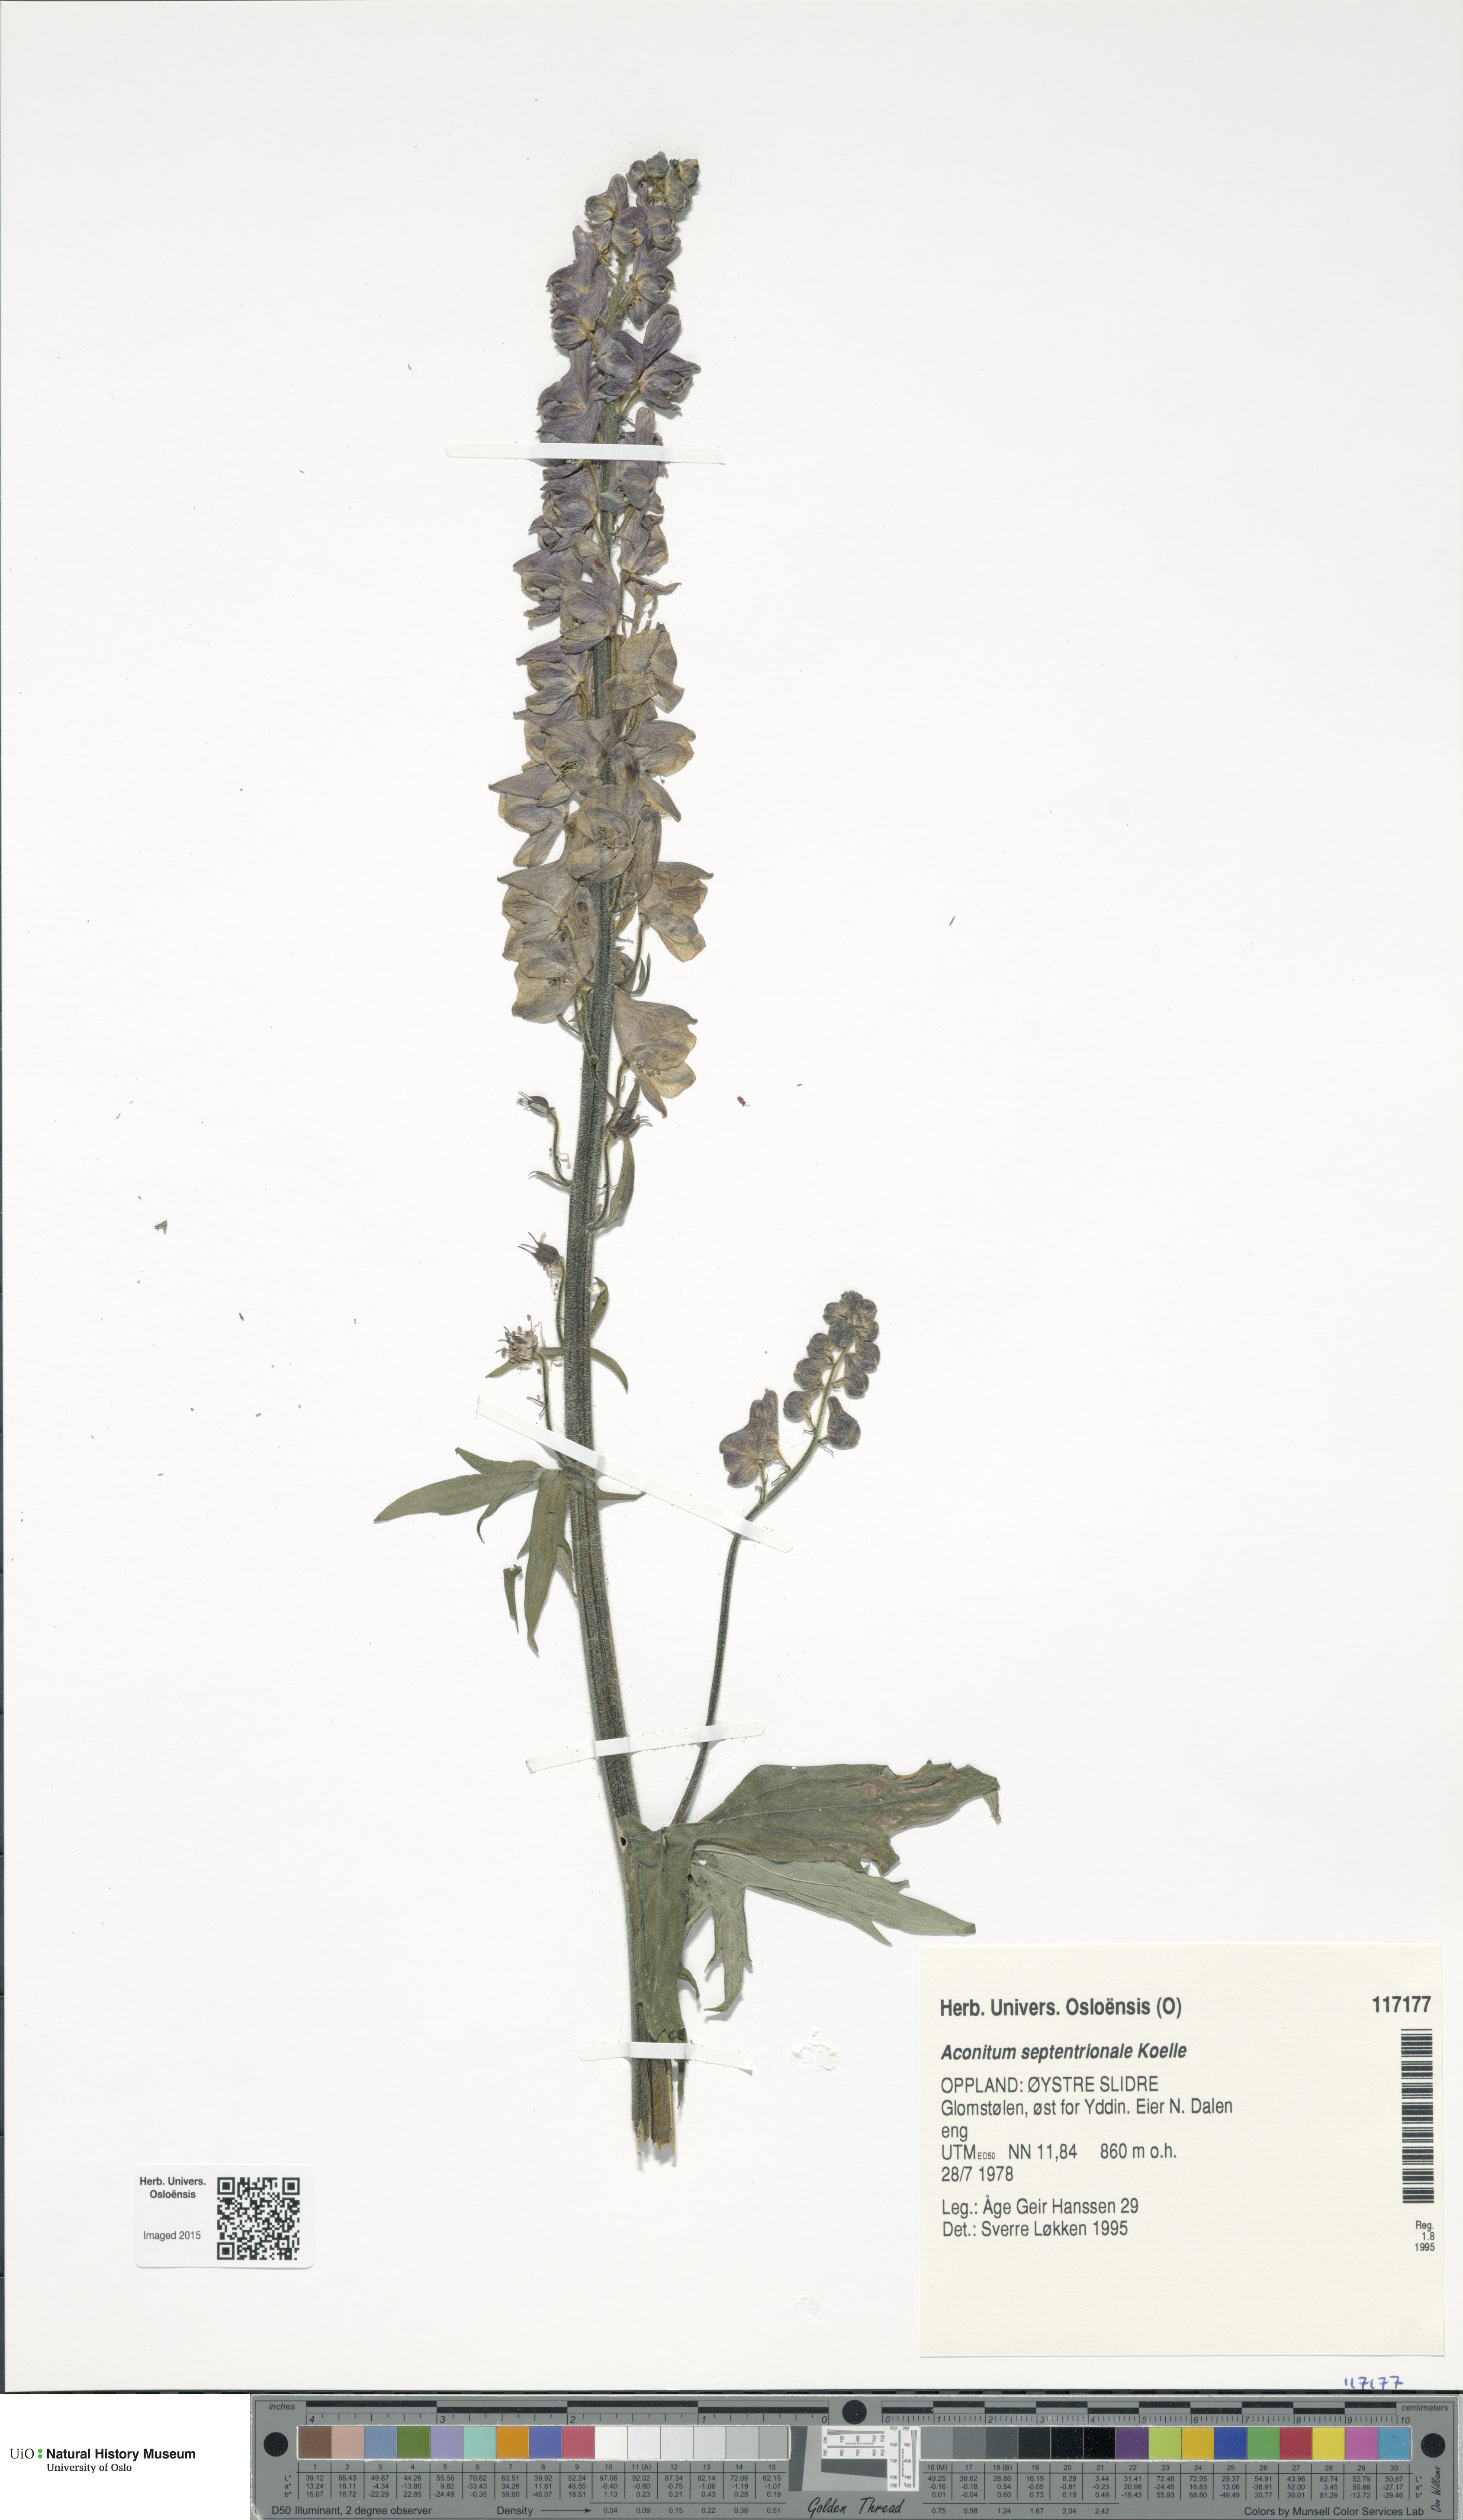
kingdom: Plantae
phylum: Tracheophyta
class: Magnoliopsida
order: Ranunculales
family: Ranunculaceae
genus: Aconitum
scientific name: Aconitum septentrionale
